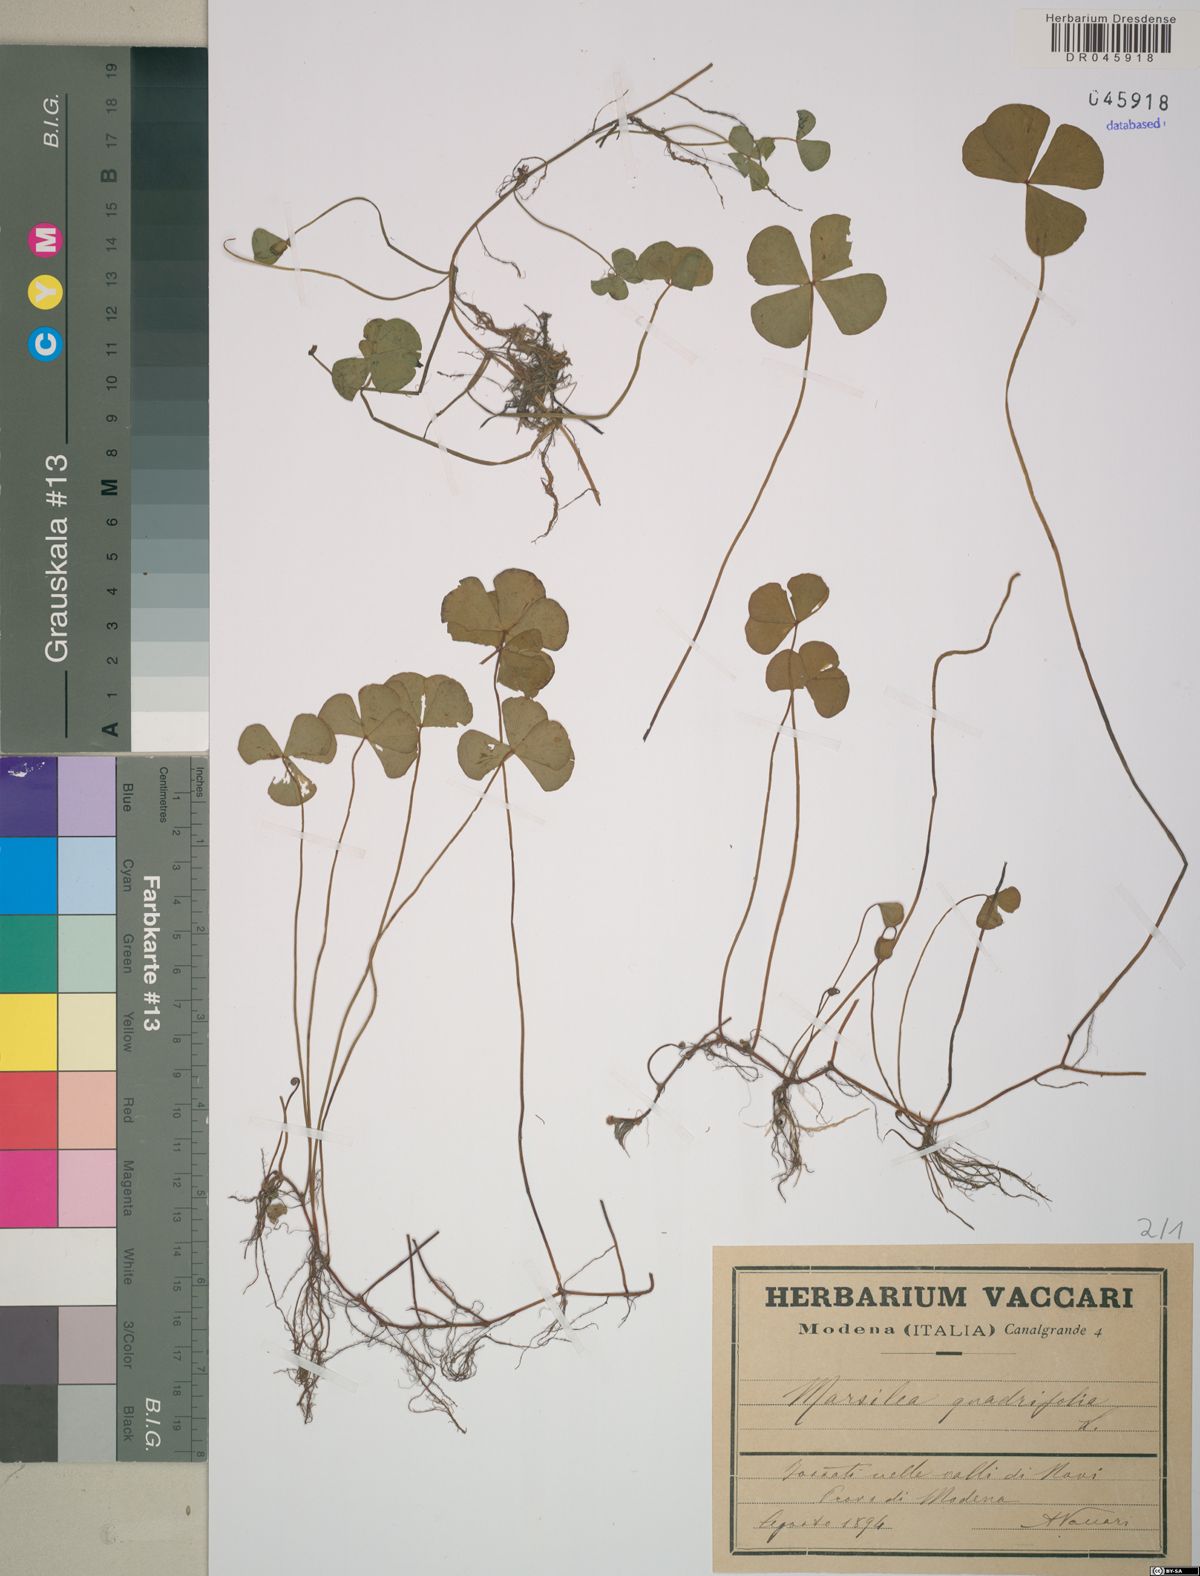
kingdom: Plantae
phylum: Tracheophyta
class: Polypodiopsida
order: Salviniales
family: Marsileaceae
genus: Marsilea
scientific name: Marsilea quadrifolia
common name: Water shamrock
